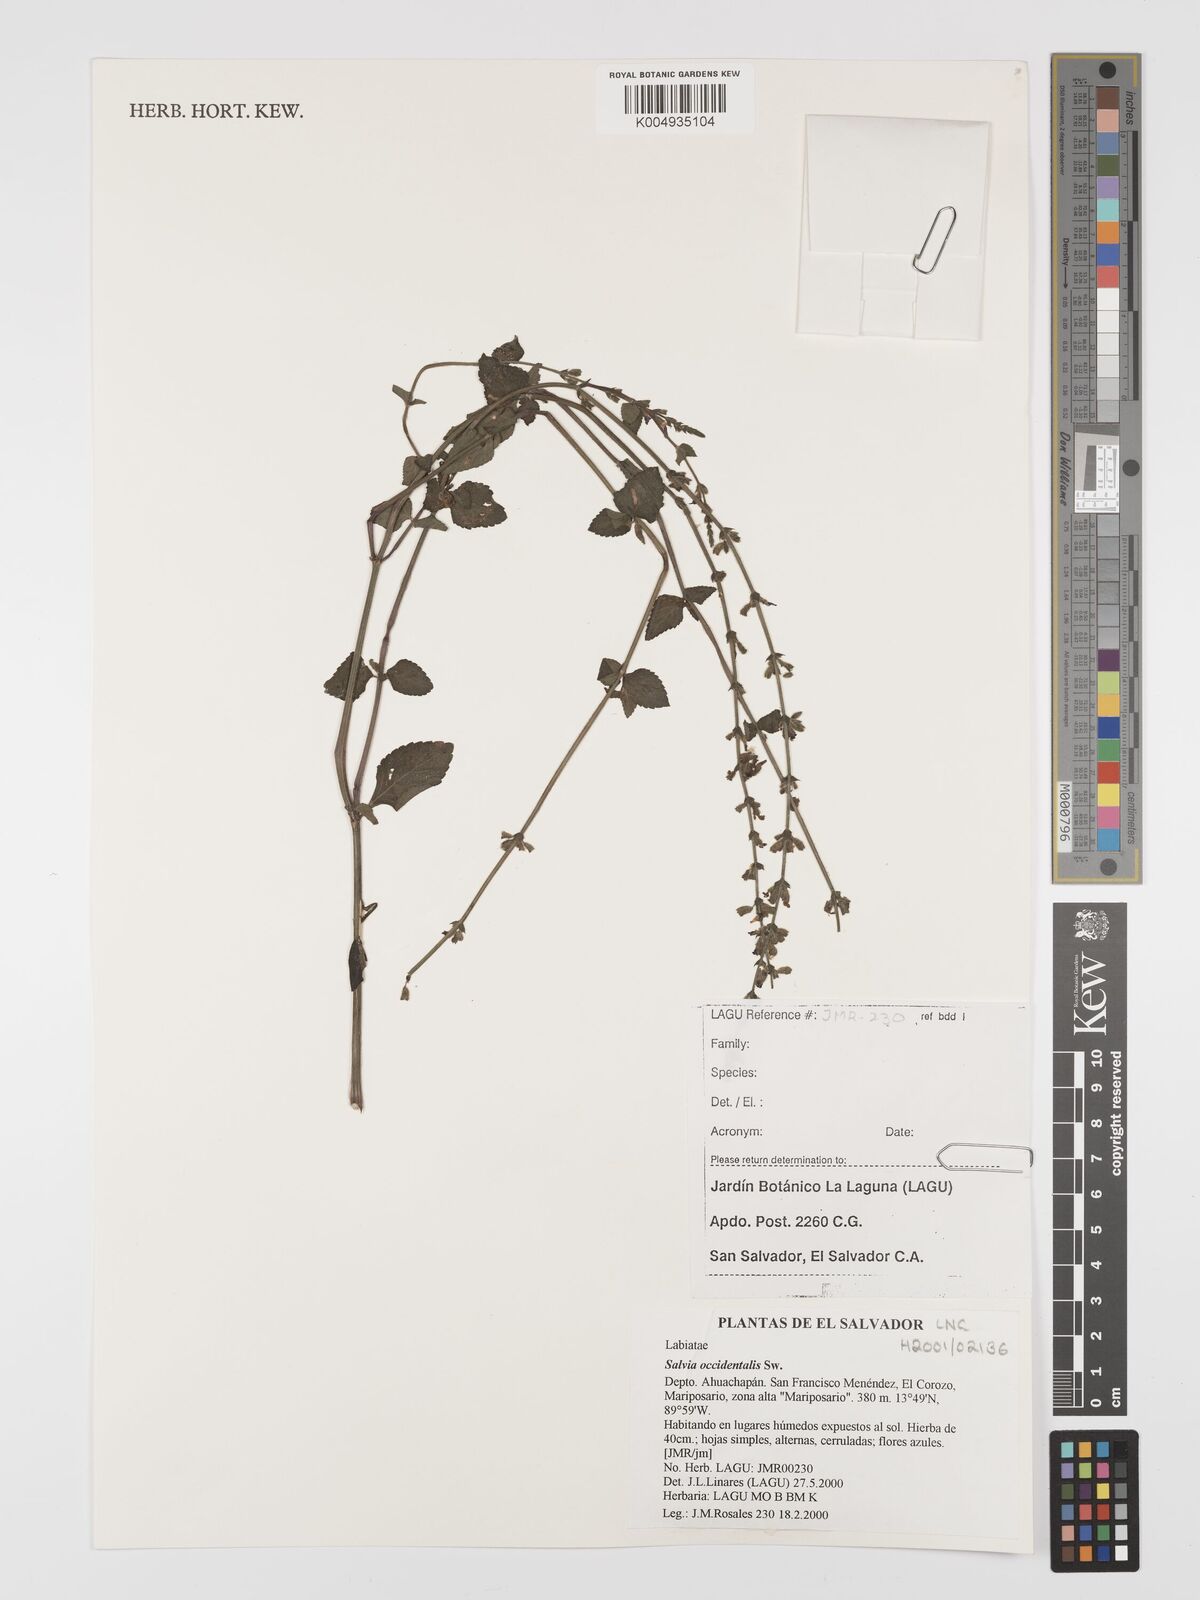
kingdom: Plantae
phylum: Tracheophyta
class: Magnoliopsida
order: Lamiales
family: Lamiaceae
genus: Salvia
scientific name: Salvia occidentalis
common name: West indian sage
